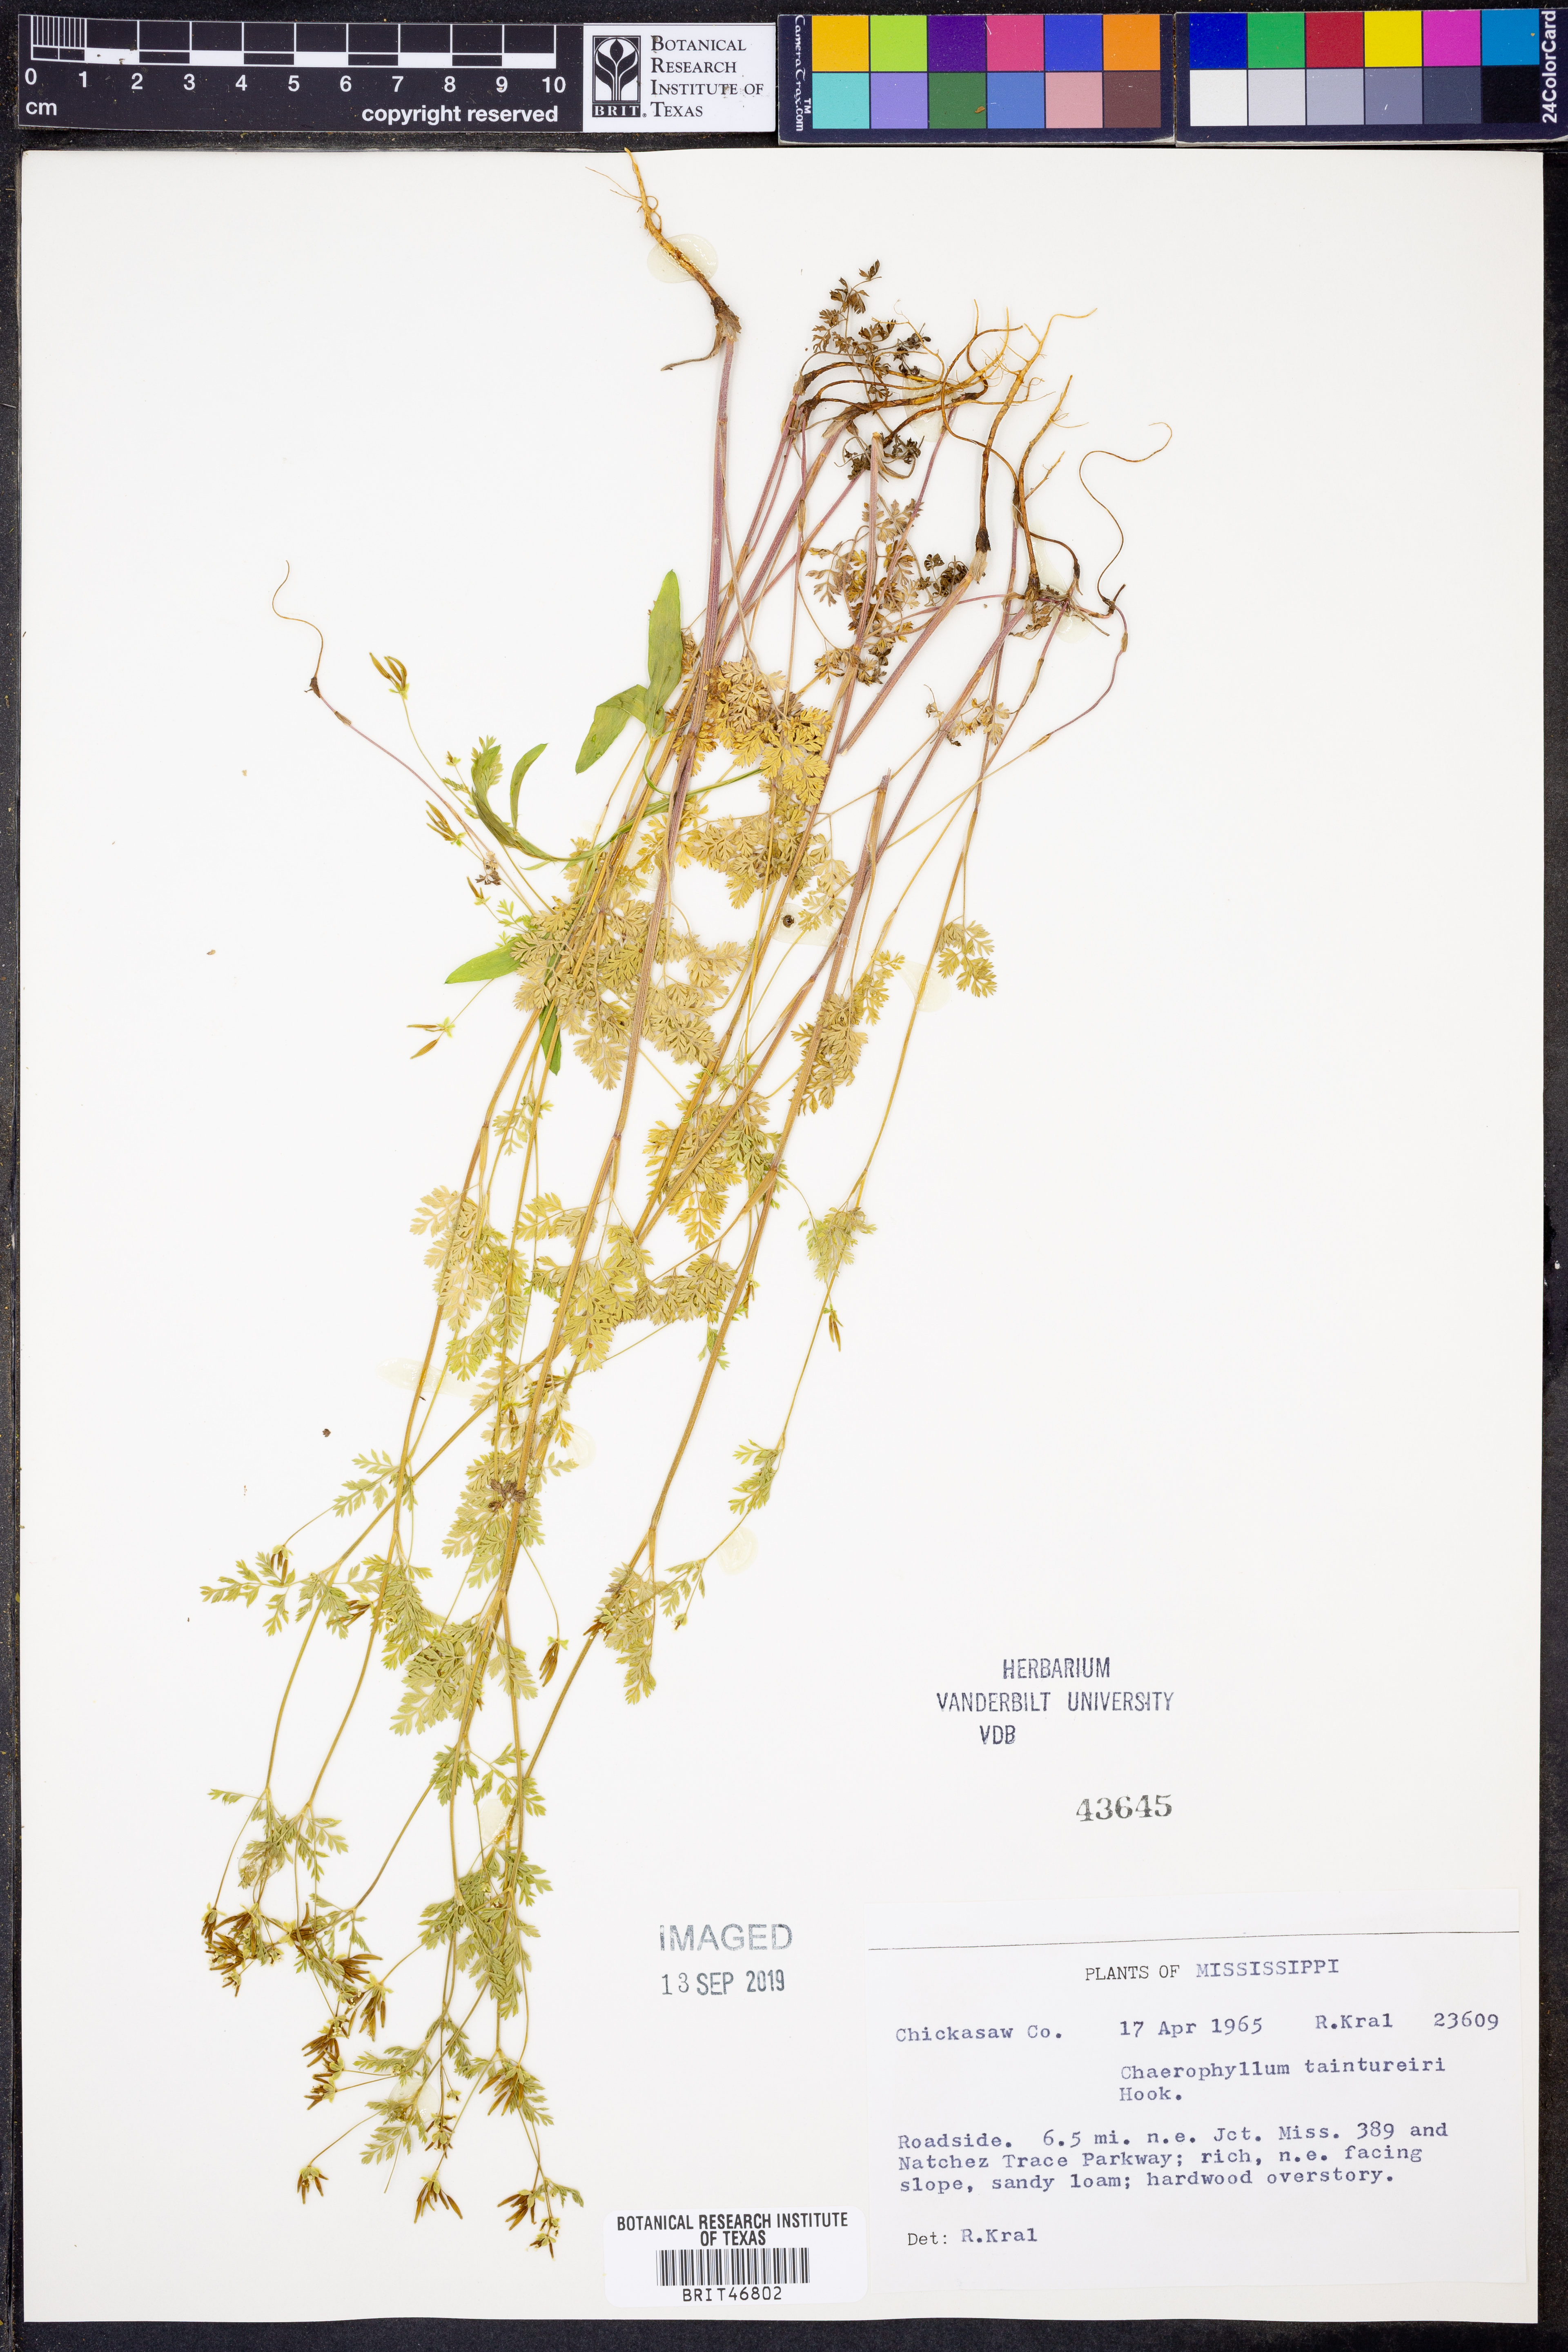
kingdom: Plantae
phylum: Tracheophyta
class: Magnoliopsida
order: Apiales
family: Apiaceae
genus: Chaerophyllum
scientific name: Chaerophyllum tainturieri
